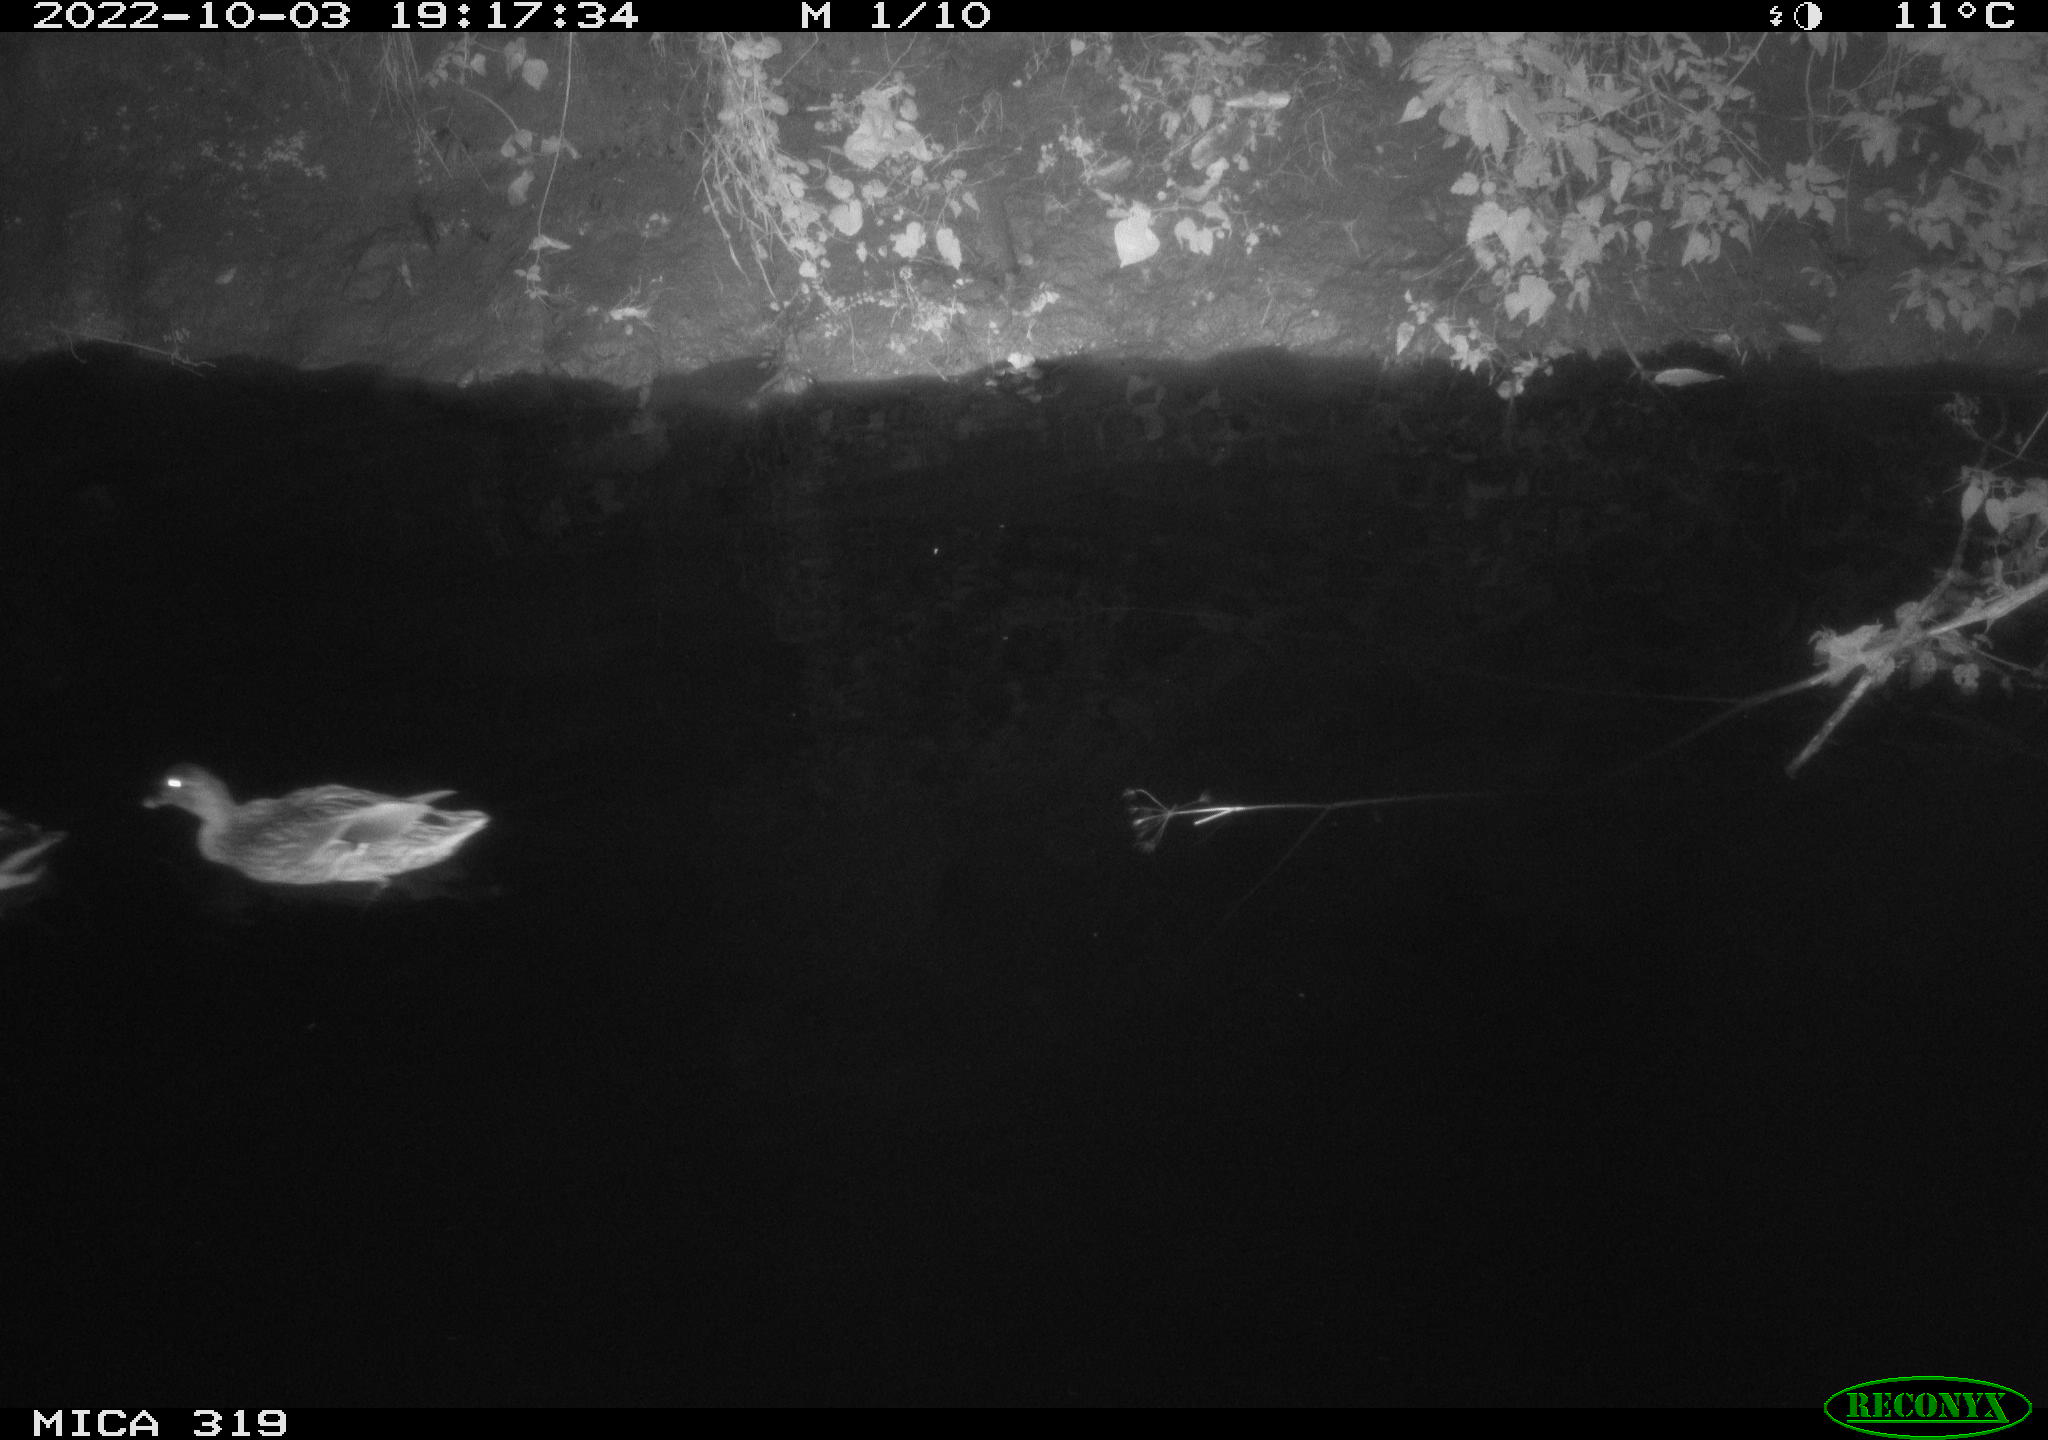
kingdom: Animalia
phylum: Chordata
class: Aves
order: Anseriformes
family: Anatidae
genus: Anas
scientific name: Anas
